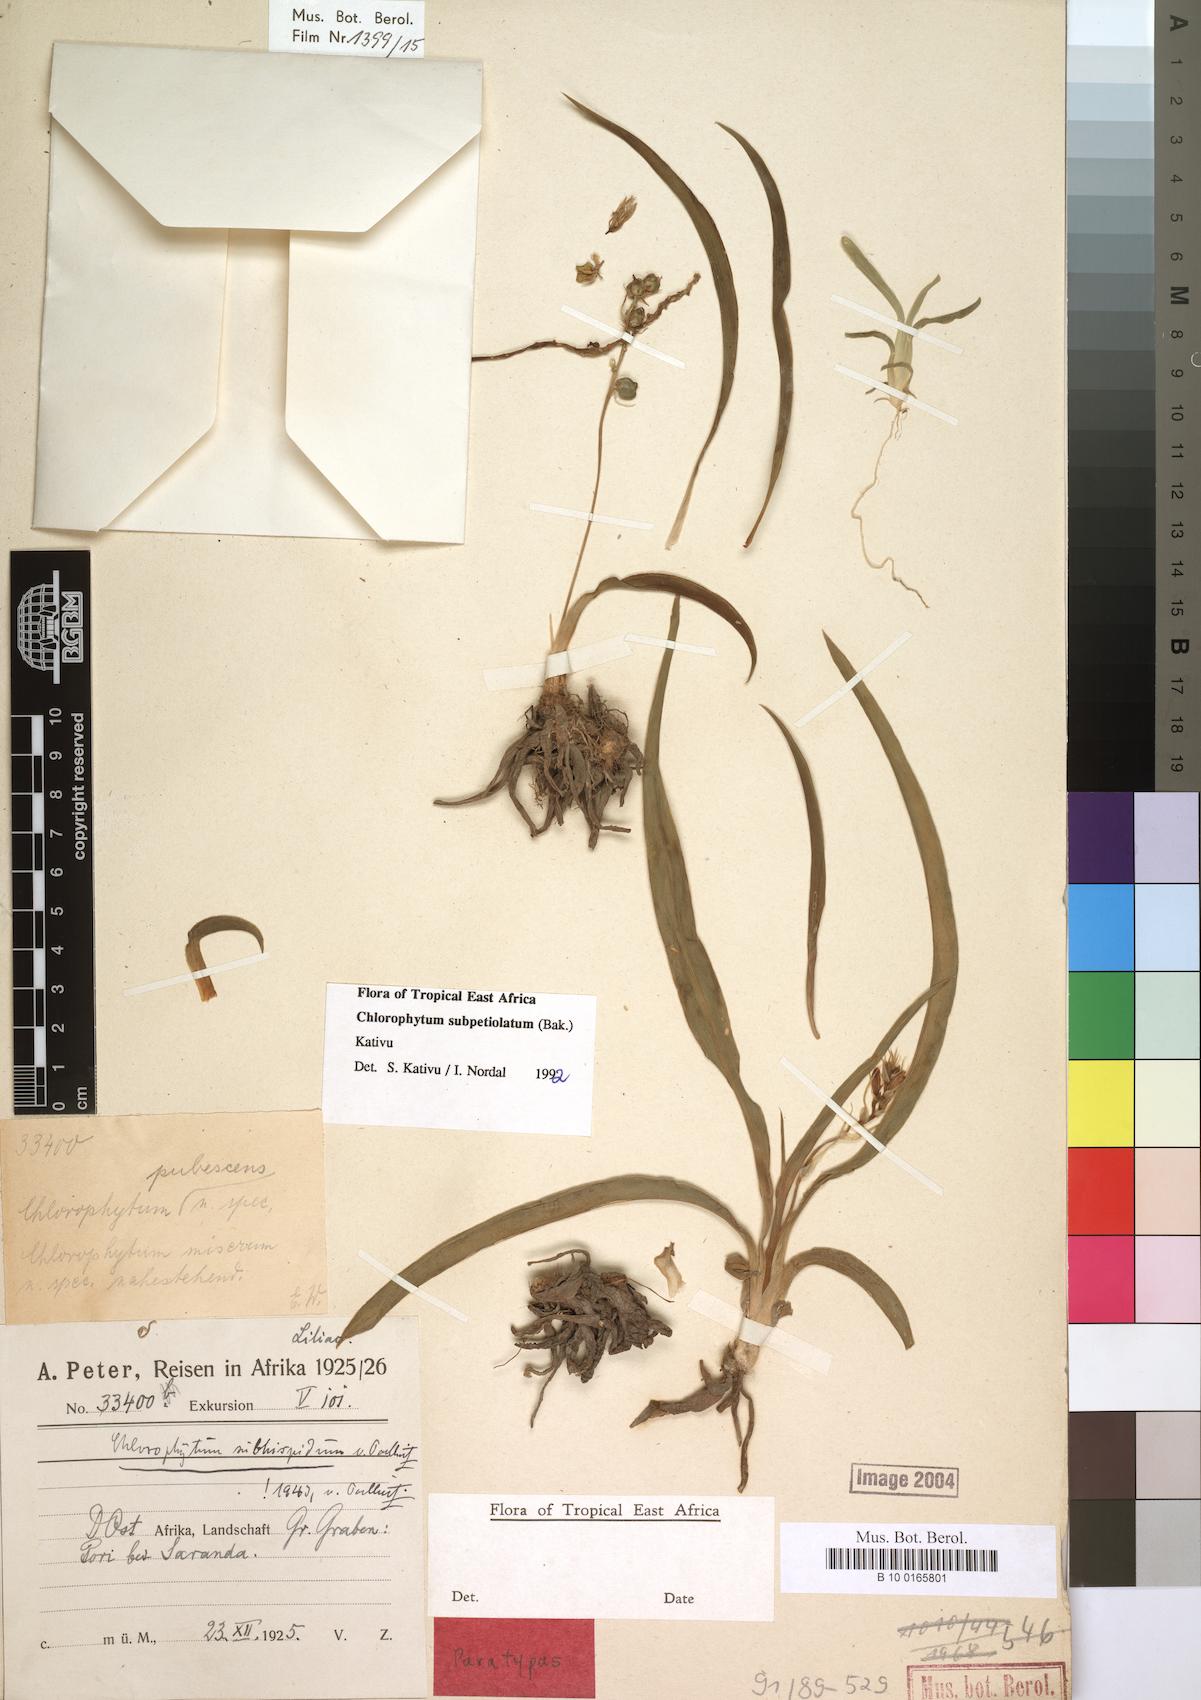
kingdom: Plantae
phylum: Tracheophyta
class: Liliopsida
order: Asparagales
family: Asparagaceae
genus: Chlorophytum
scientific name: Chlorophytum subpetiolatum
